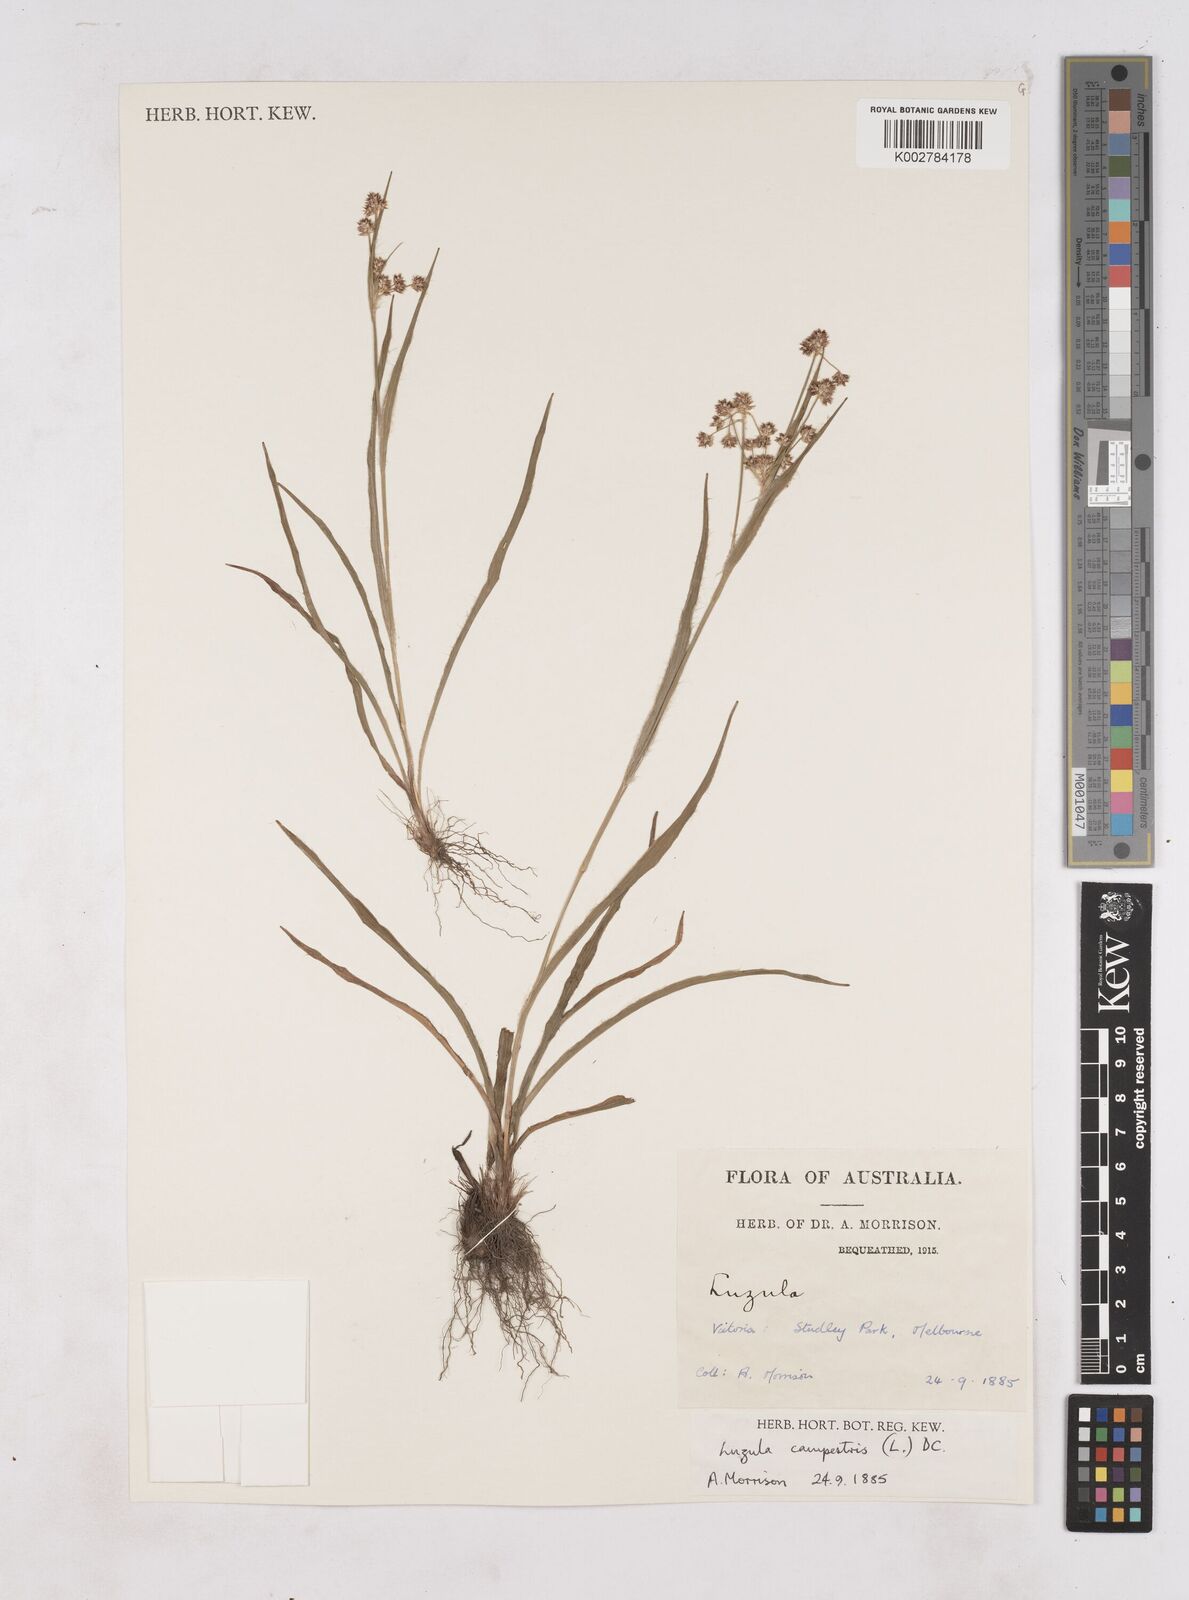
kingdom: Plantae
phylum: Tracheophyta
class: Liliopsida
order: Poales
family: Juncaceae
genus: Luzula
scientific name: Luzula campestris
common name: Field wood-rush
